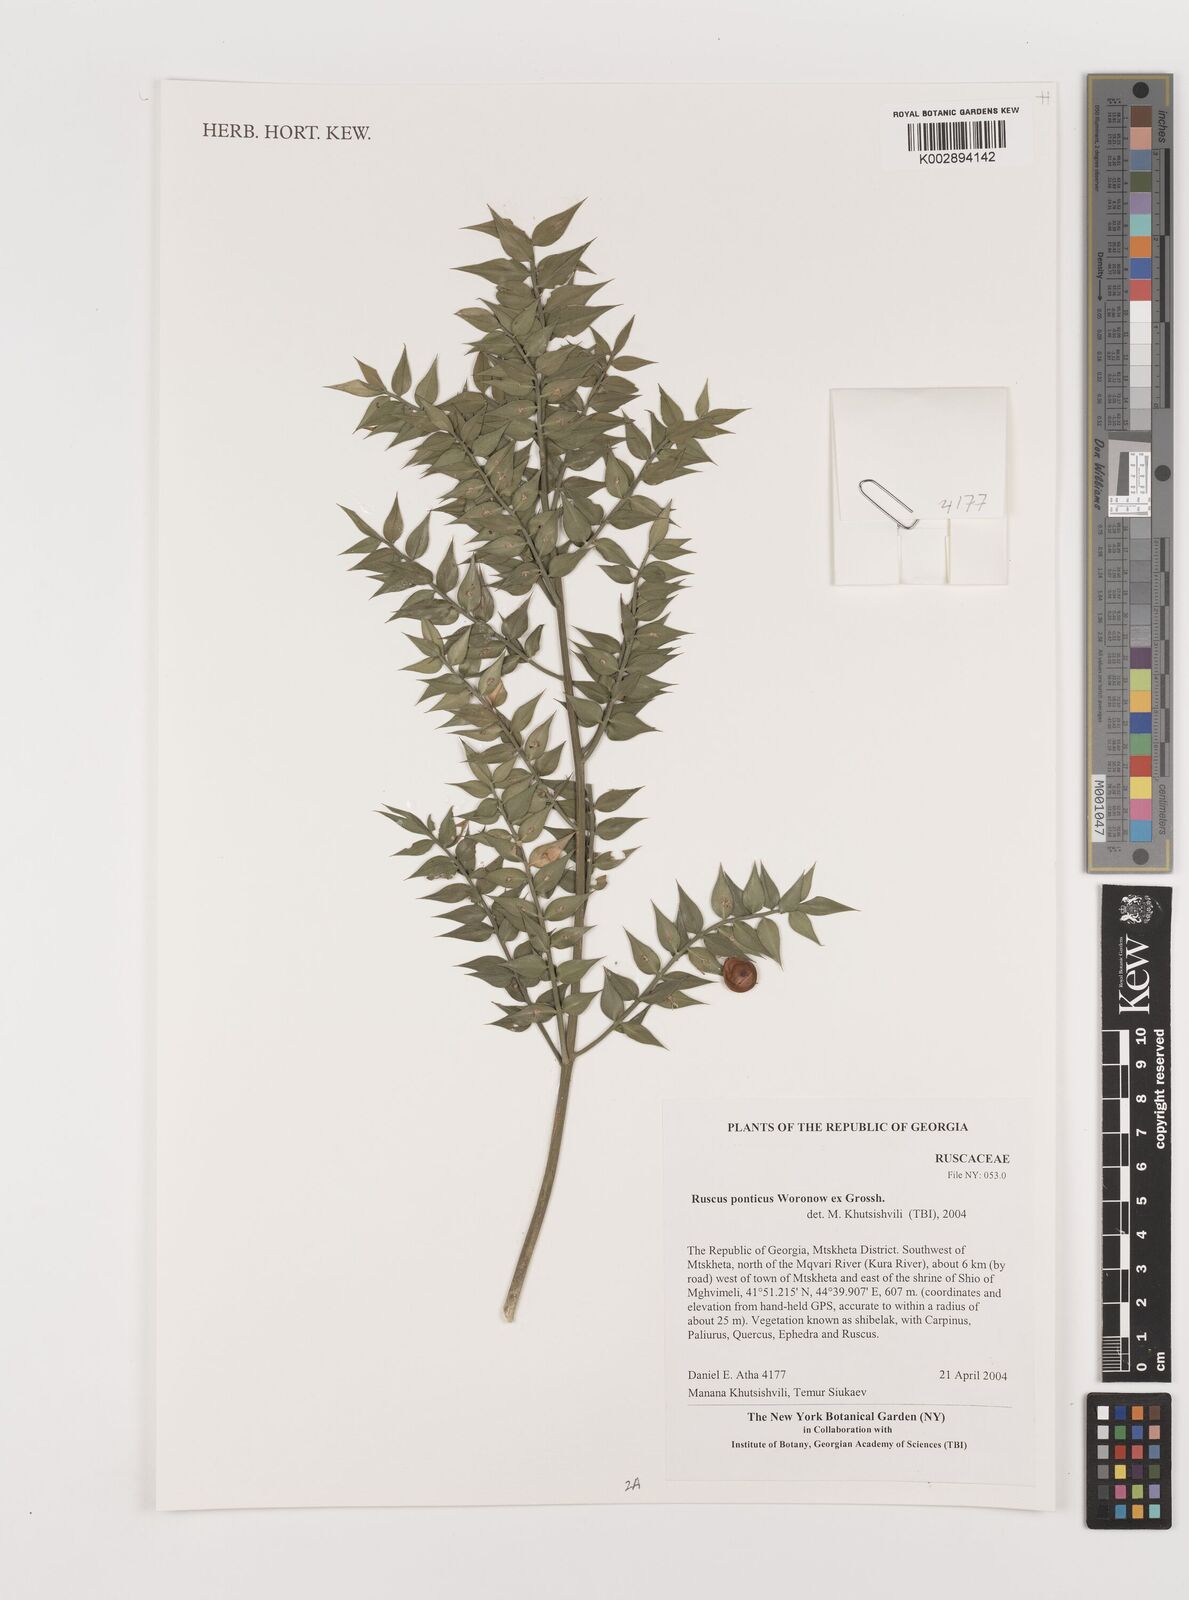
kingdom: Plantae
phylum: Tracheophyta
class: Liliopsida
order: Asparagales
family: Asparagaceae
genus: Ruscus
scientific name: Ruscus aculeatus
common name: Butcher's-broom
